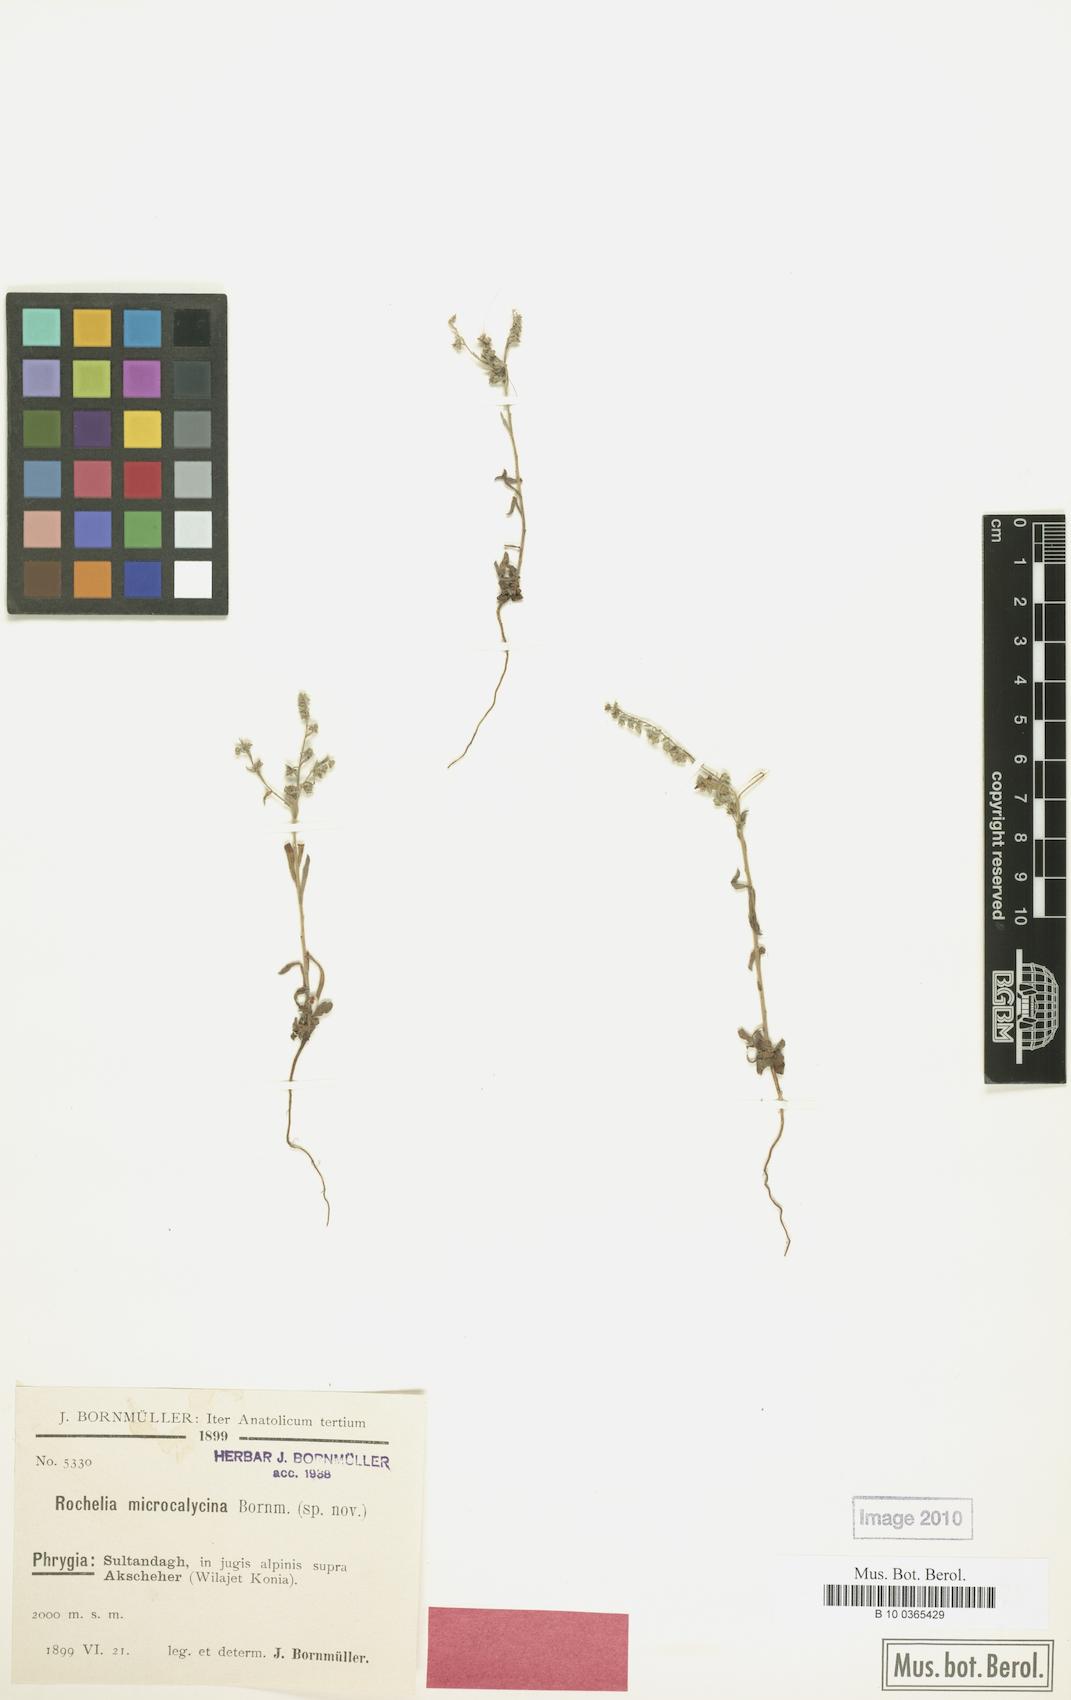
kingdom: Plantae
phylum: Tracheophyta
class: Magnoliopsida
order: Boraginales
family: Boraginaceae
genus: Rochelia
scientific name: Rochelia disperma
